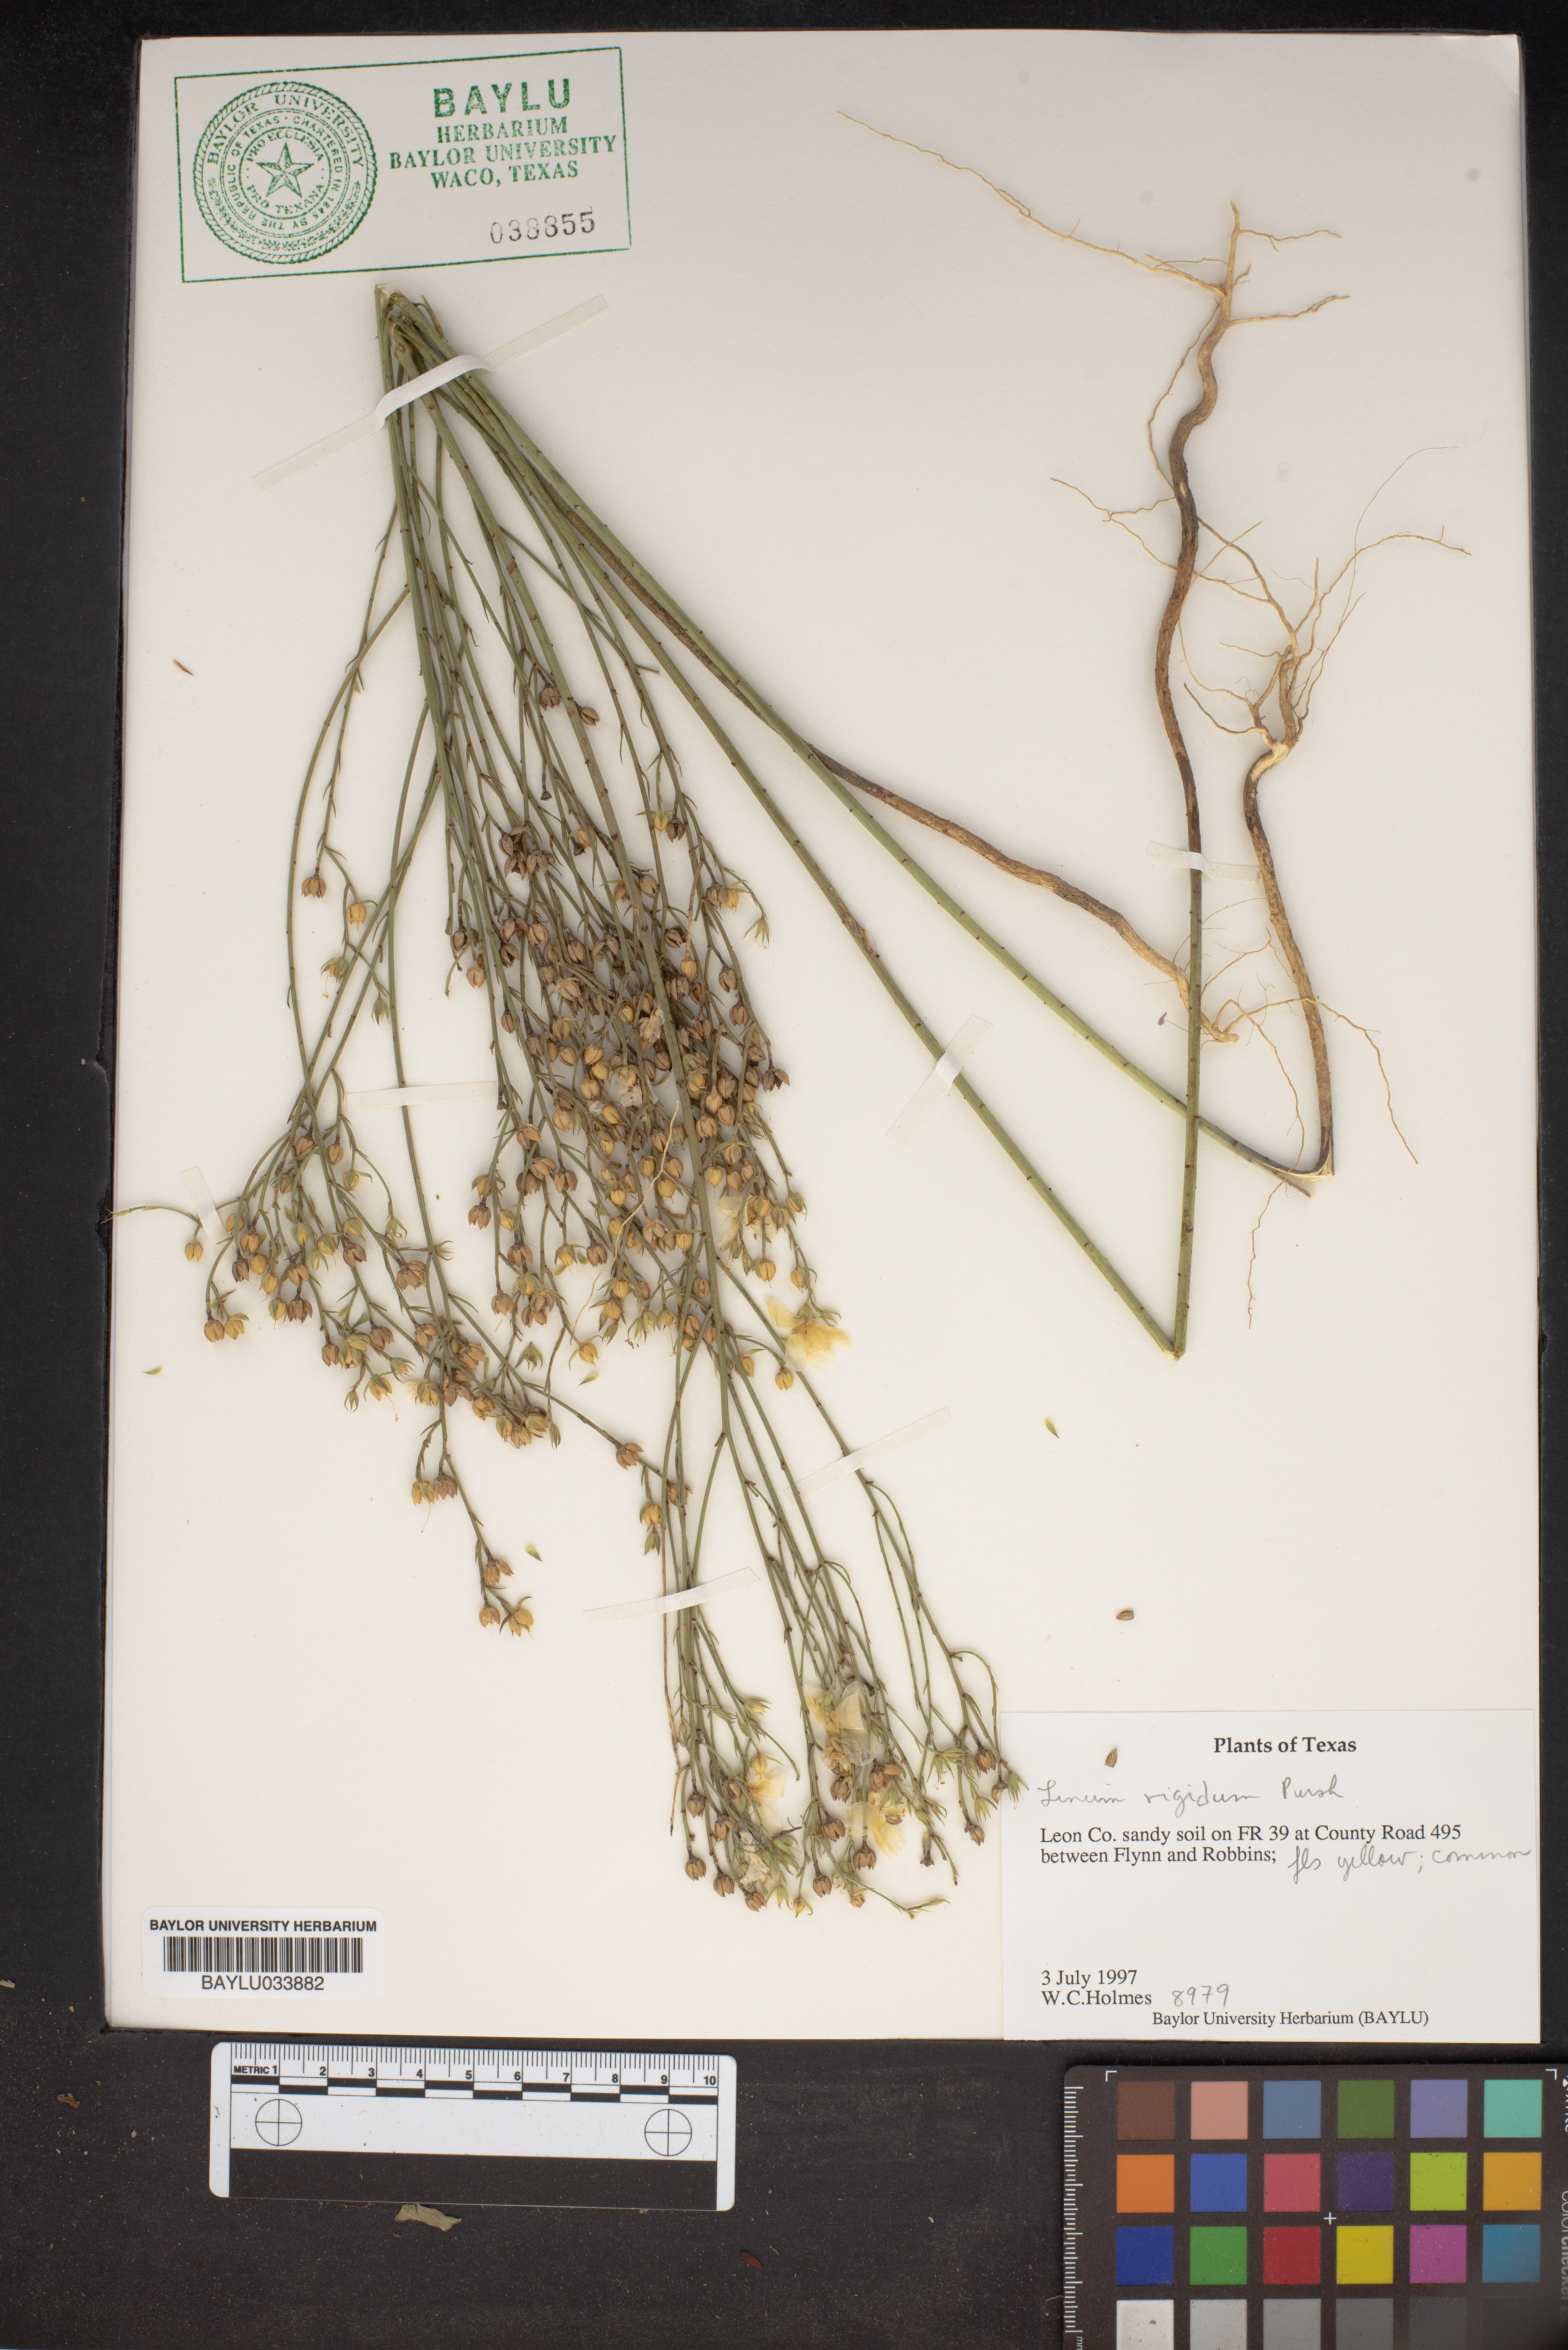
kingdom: Plantae
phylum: Tracheophyta
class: Magnoliopsida
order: Malpighiales
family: Linaceae
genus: Linum
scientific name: Linum rigidum
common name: Stiff-stem flax
